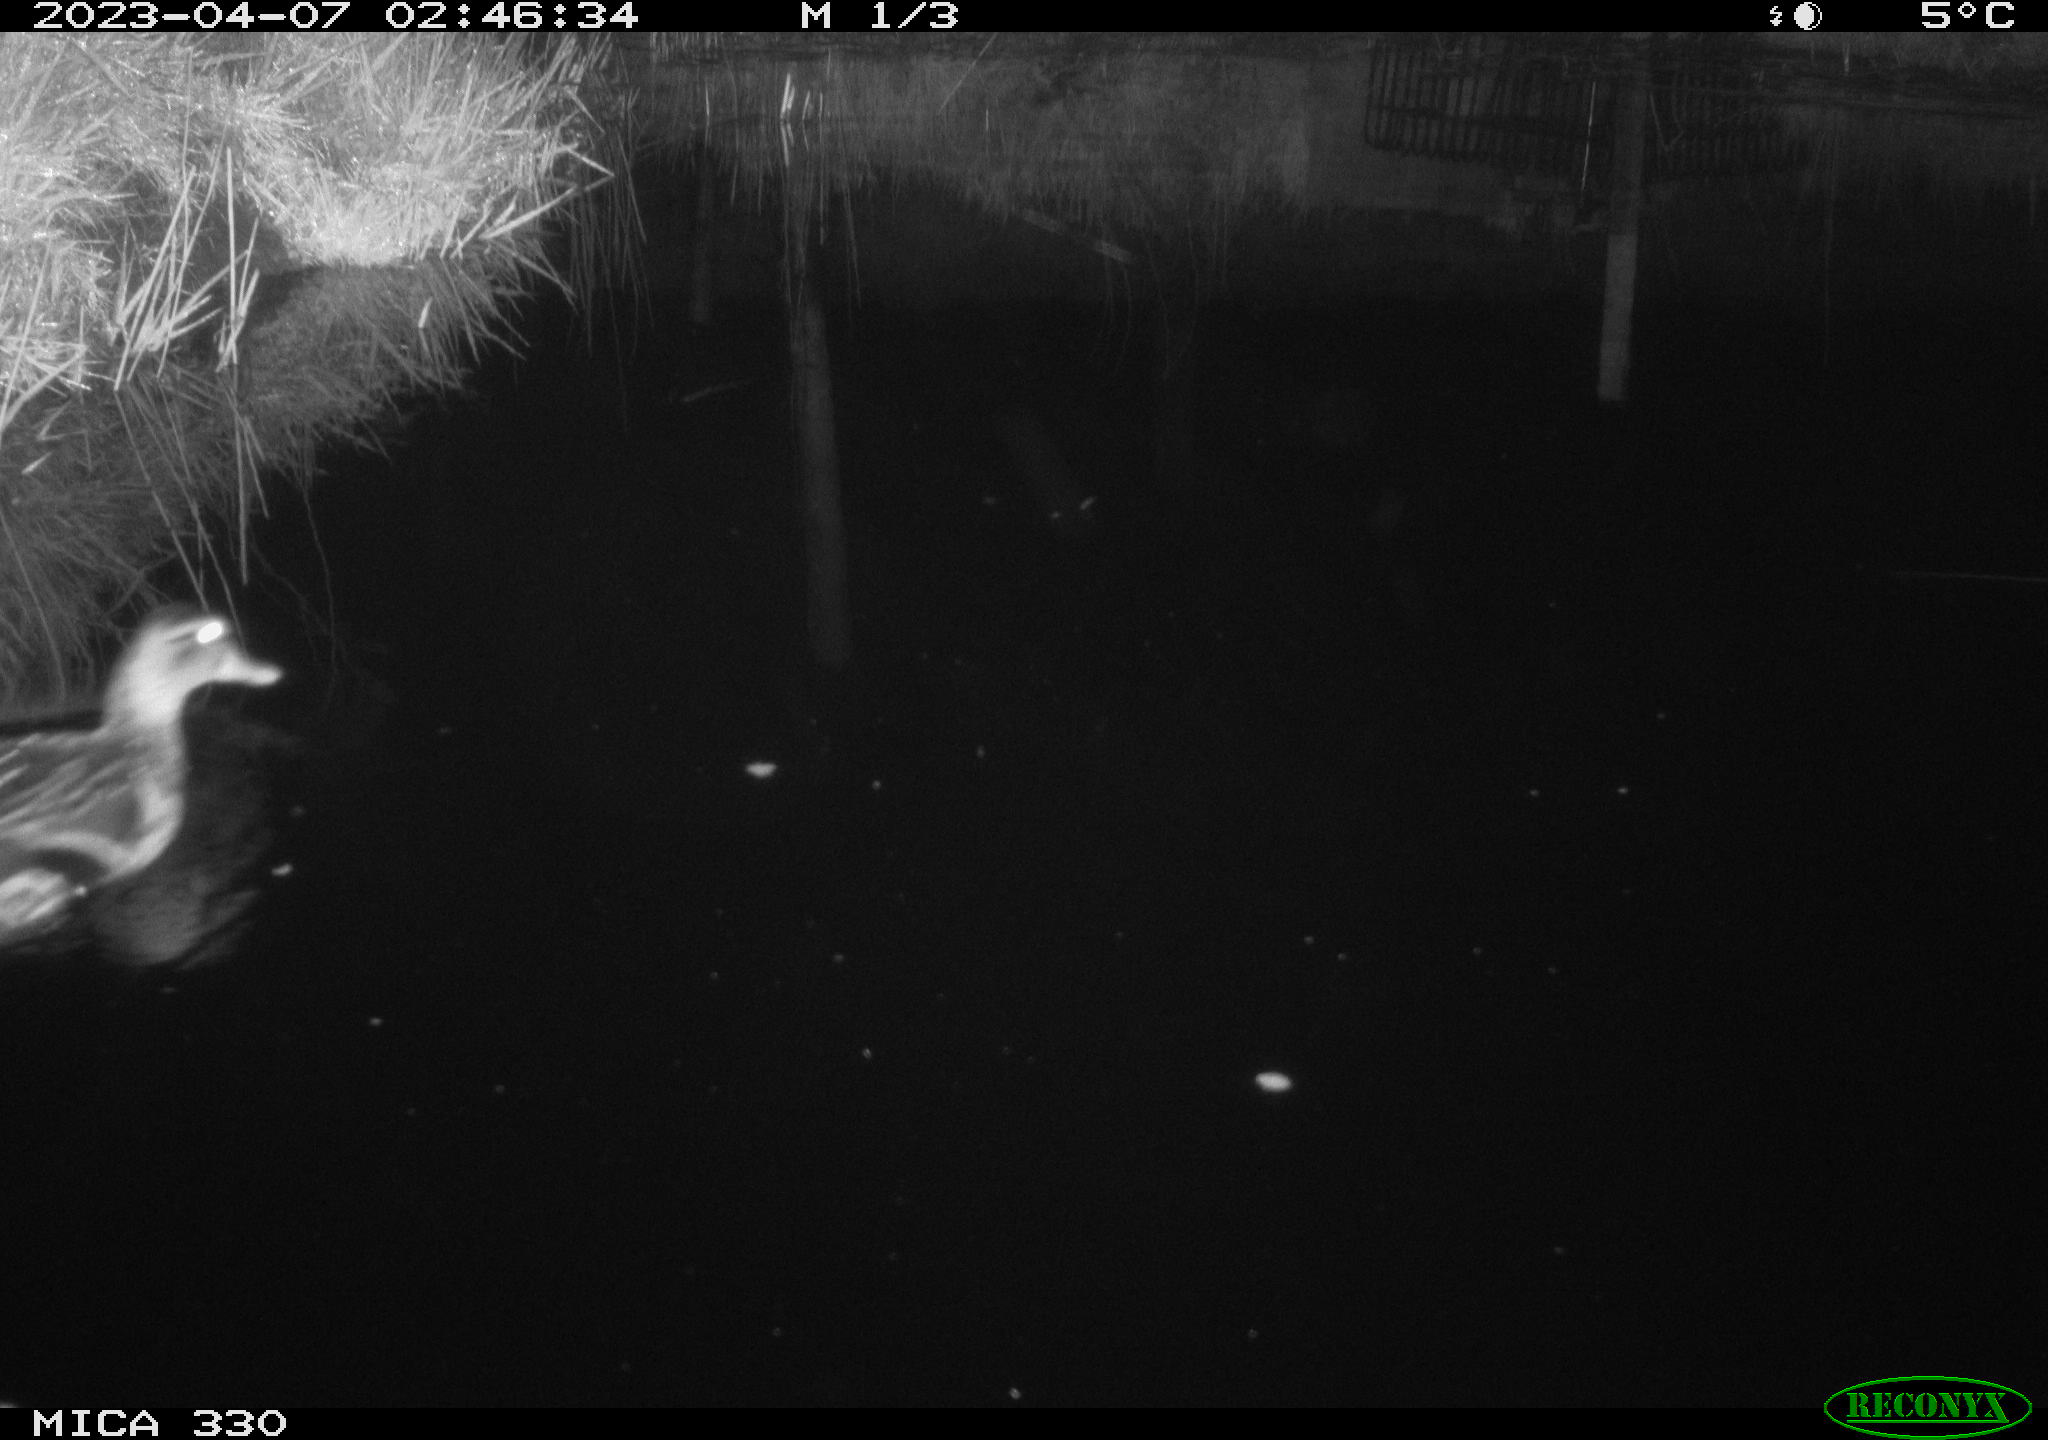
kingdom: Animalia
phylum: Chordata
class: Aves
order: Anseriformes
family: Anatidae
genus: Anas
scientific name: Anas
